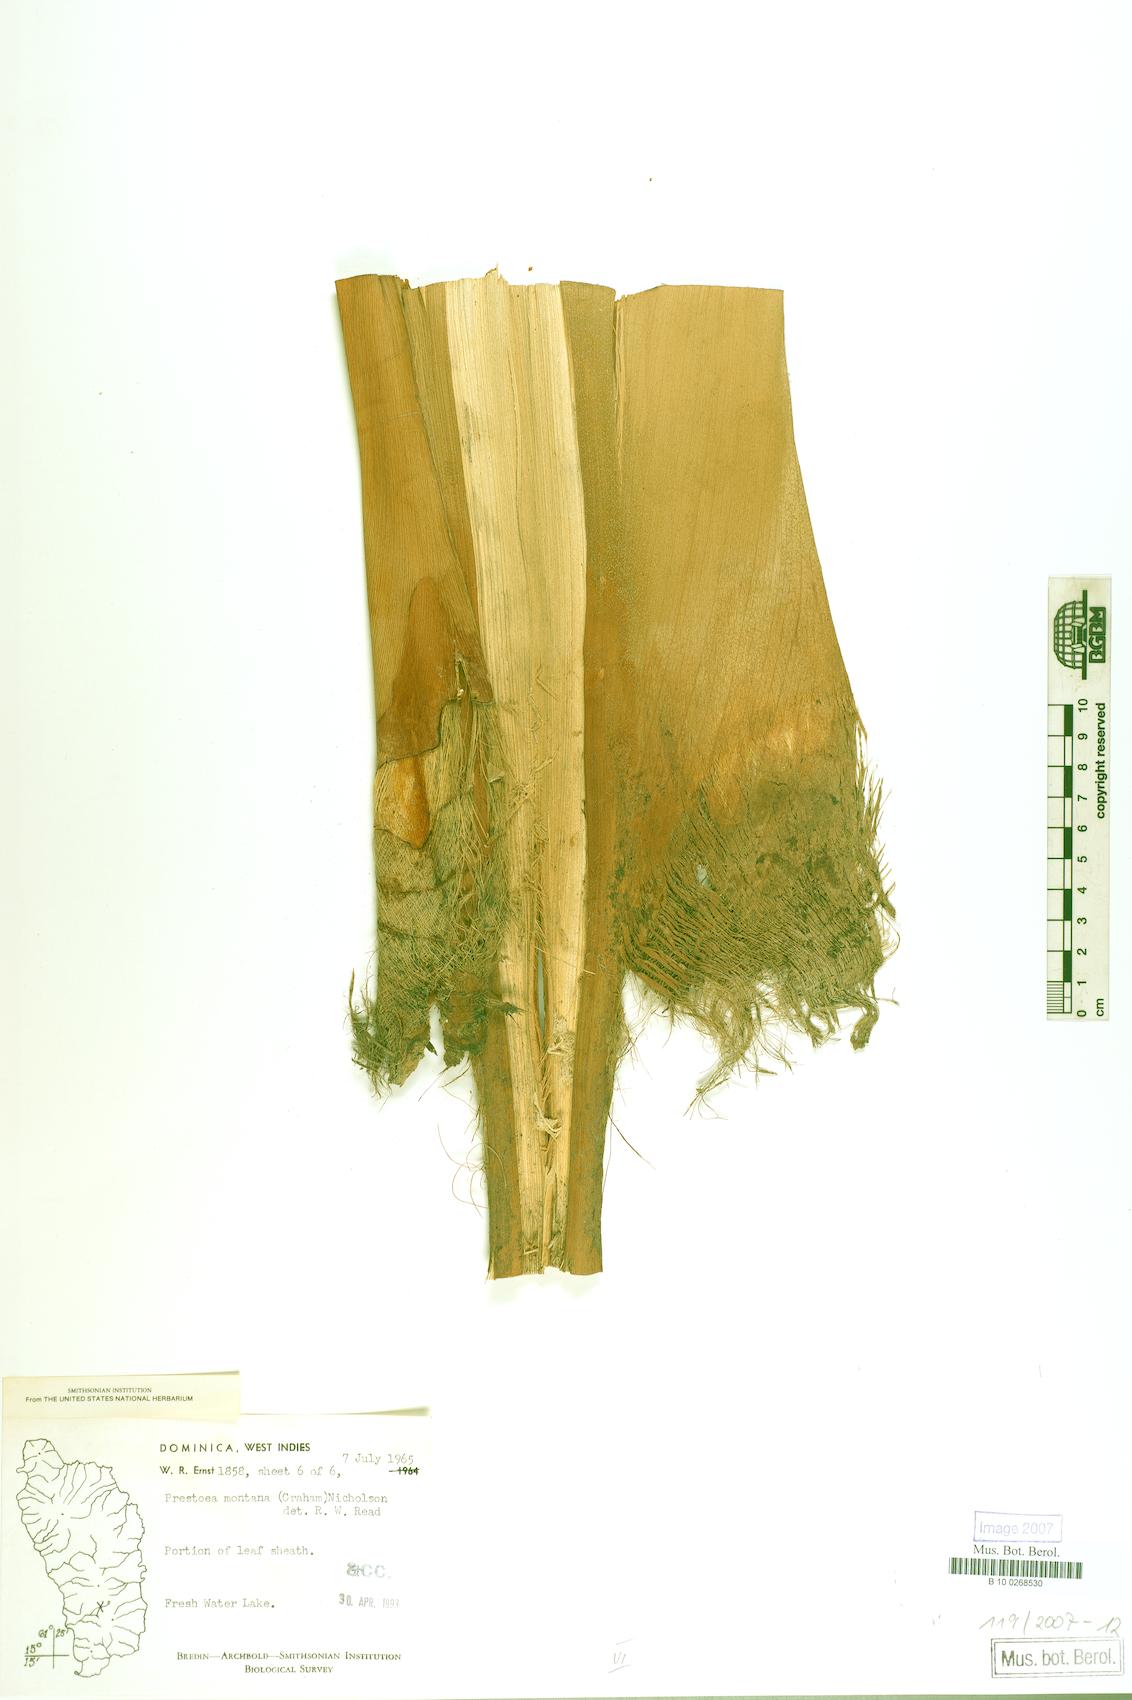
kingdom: Plantae
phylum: Tracheophyta
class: Liliopsida
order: Arecales
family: Arecaceae
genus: Prestoea
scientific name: Prestoea acuminata
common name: Sierran palm
